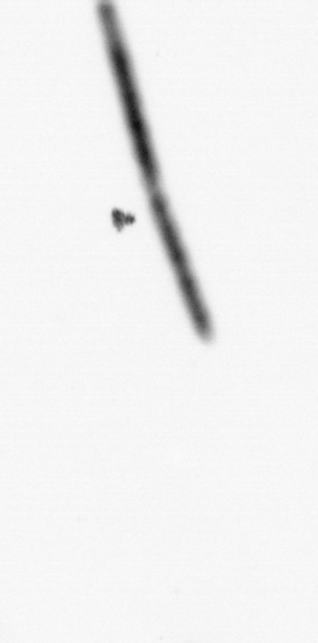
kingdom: Chromista
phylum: Ochrophyta
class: Bacillariophyceae
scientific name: Bacillariophyceae
